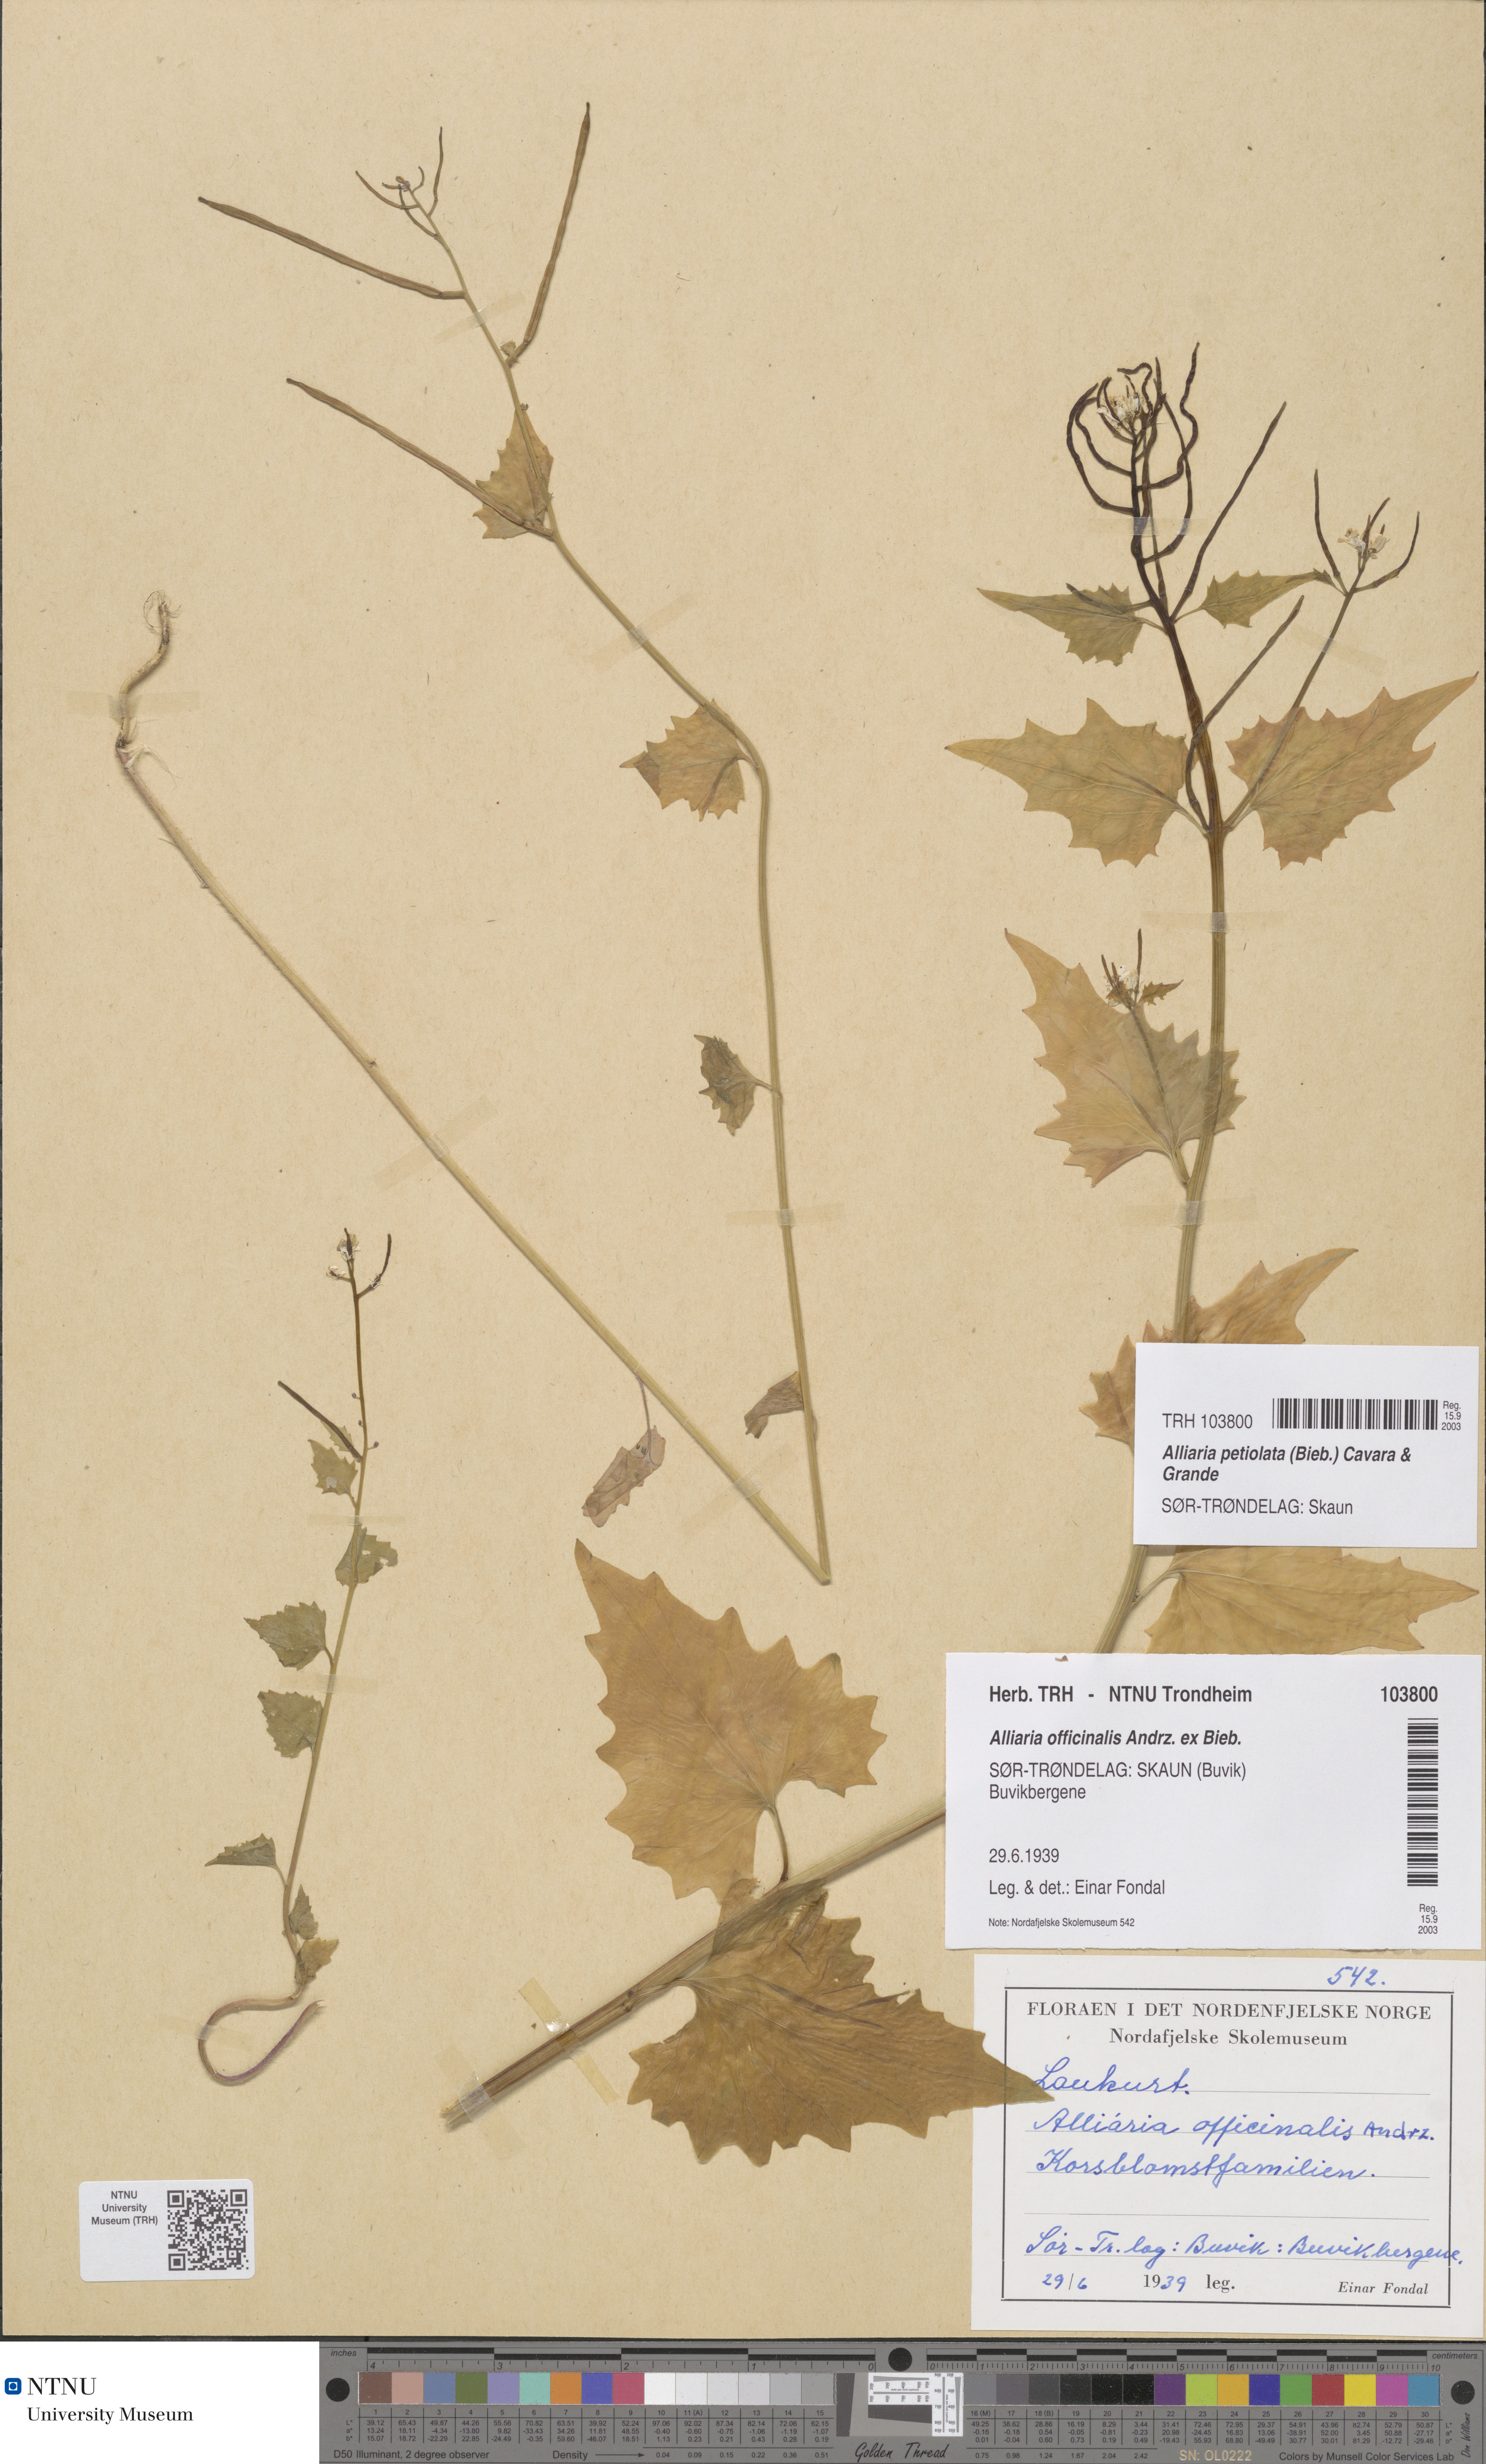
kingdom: Plantae
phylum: Tracheophyta
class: Magnoliopsida
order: Brassicales
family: Brassicaceae
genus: Alliaria
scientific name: Alliaria petiolata
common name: Garlic mustard
